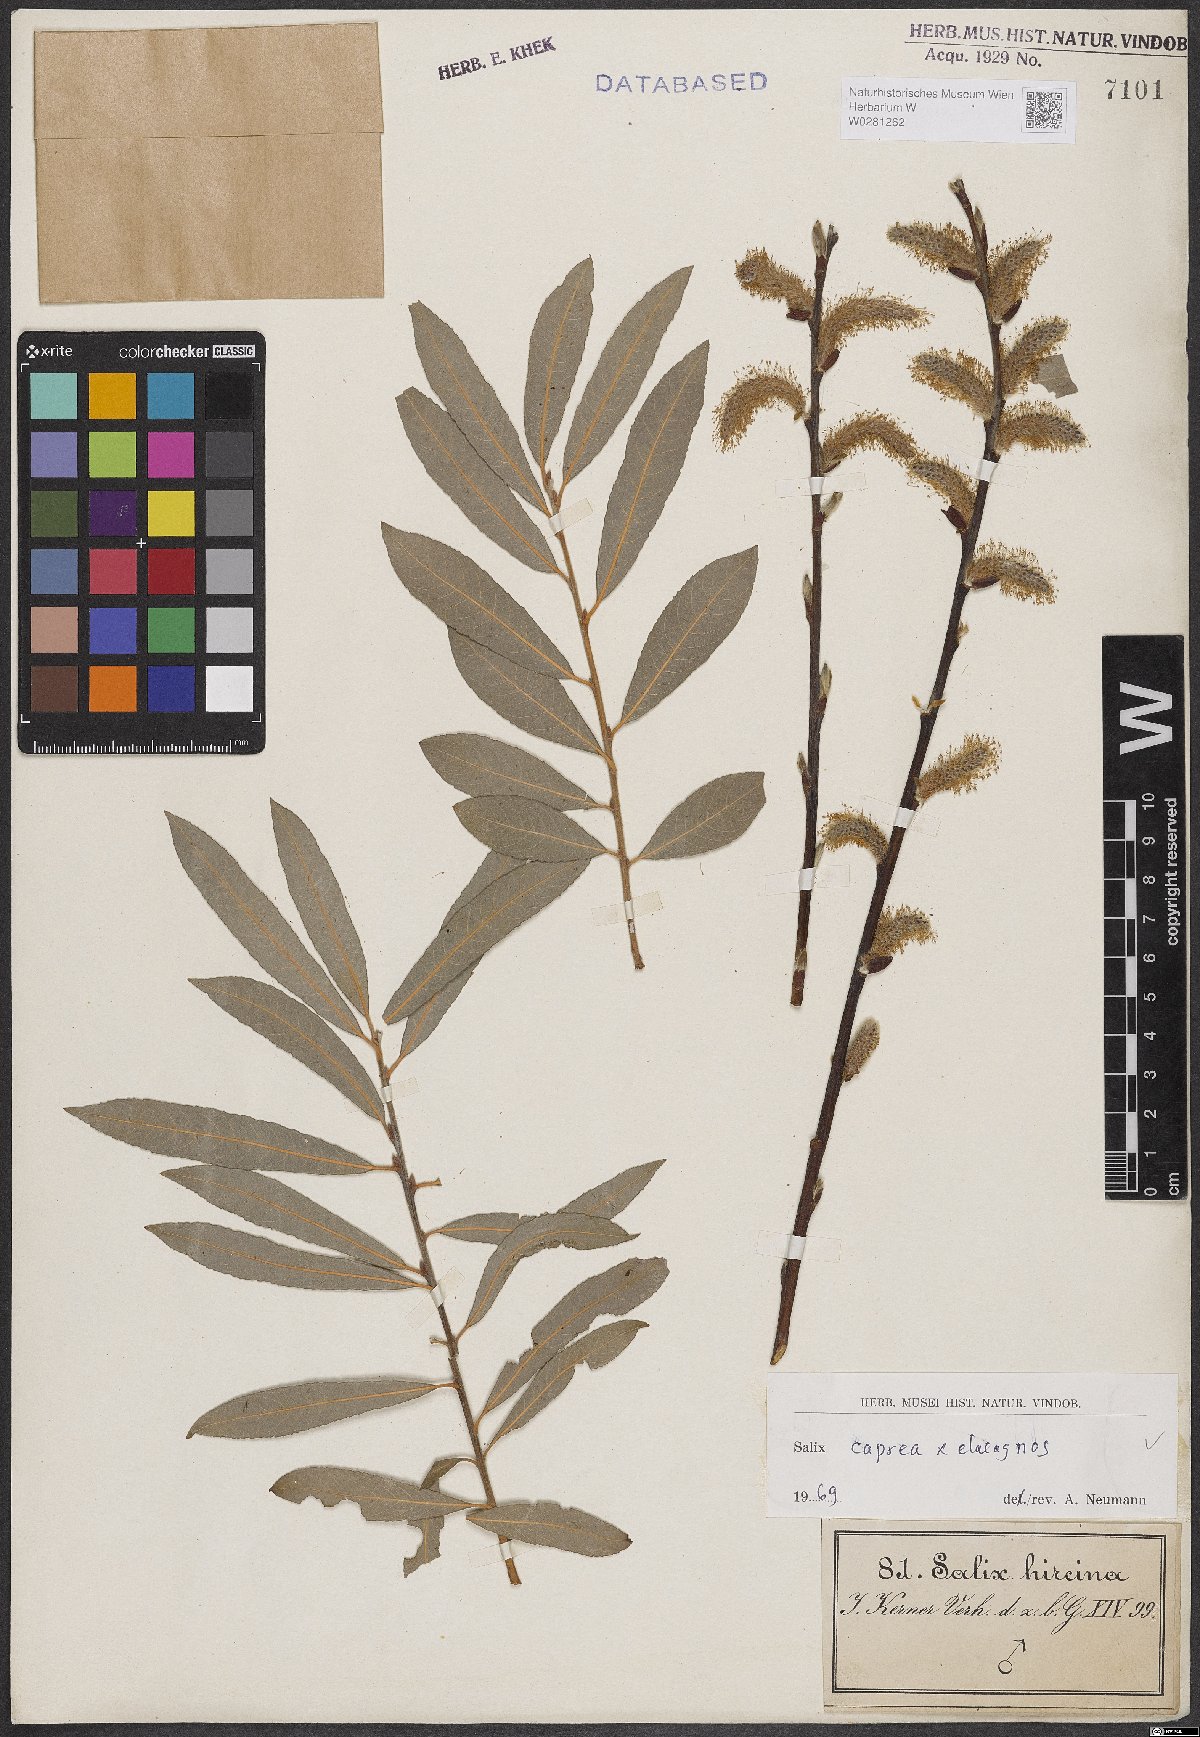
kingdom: Plantae
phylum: Tracheophyta
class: Magnoliopsida
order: Malpighiales
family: Salicaceae
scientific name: Salicaceae
